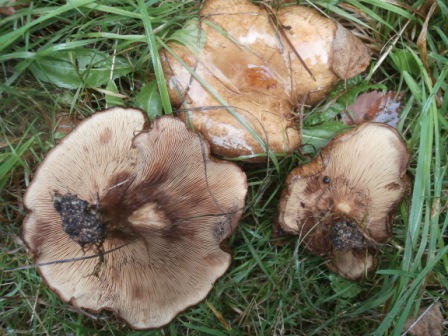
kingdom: Fungi
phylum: Basidiomycota
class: Agaricomycetes
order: Boletales
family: Paxillaceae
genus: Paxillus
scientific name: Paxillus involutus
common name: almindelig netbladhat
